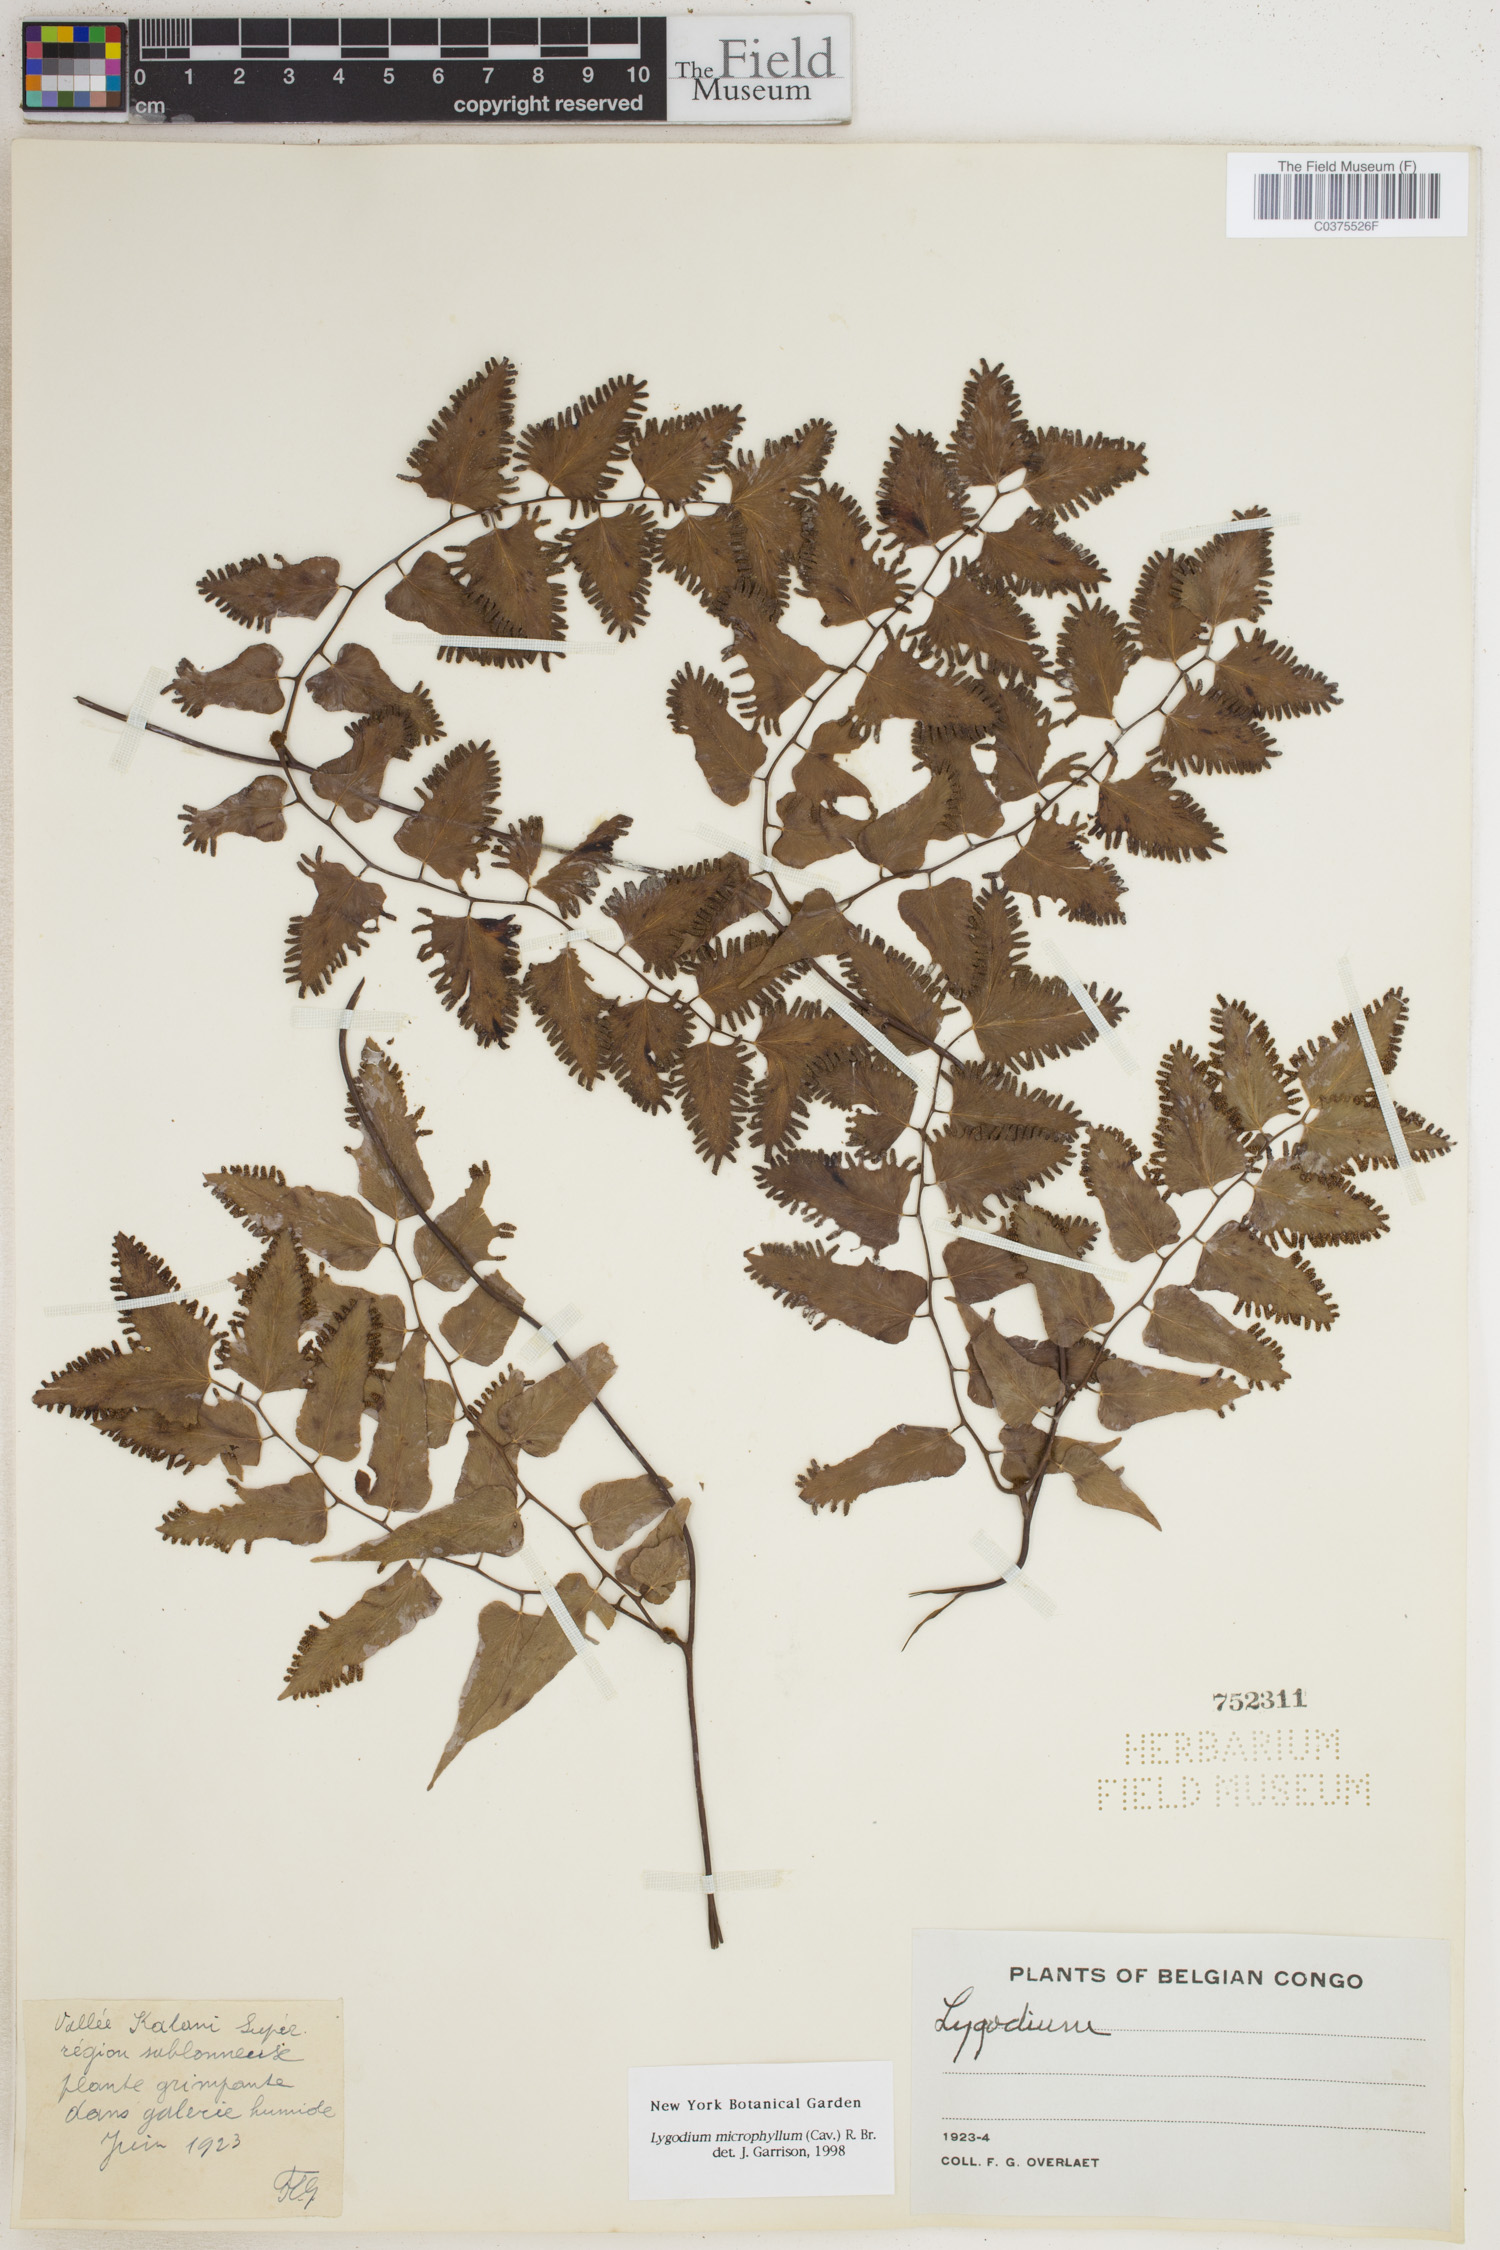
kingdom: Plantae
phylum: Tracheophyta
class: Polypodiopsida
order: Schizaeales
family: Lygodiaceae
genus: Lygodium
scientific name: Lygodium microphyllum
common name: Small-leaf climbing fern
